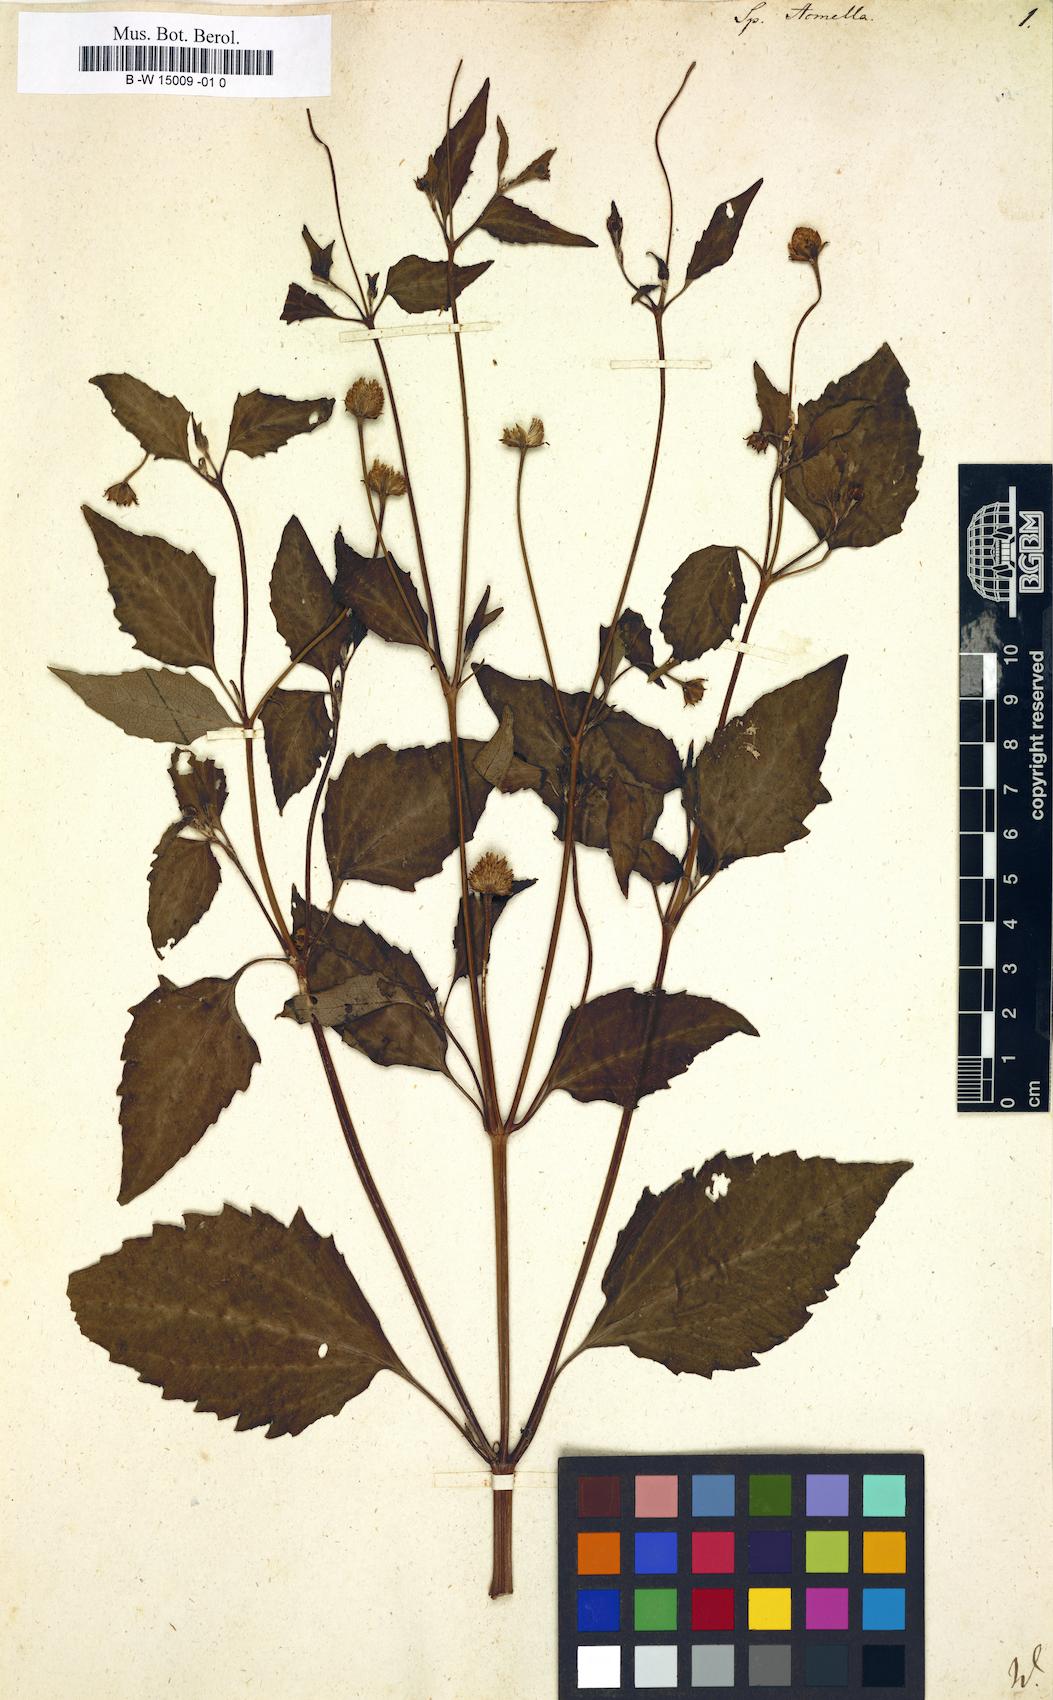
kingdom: Plantae
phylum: Tracheophyta
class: Magnoliopsida
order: Asterales
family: Asteraceae
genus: Spilanthes
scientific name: Spilanthes acmella
